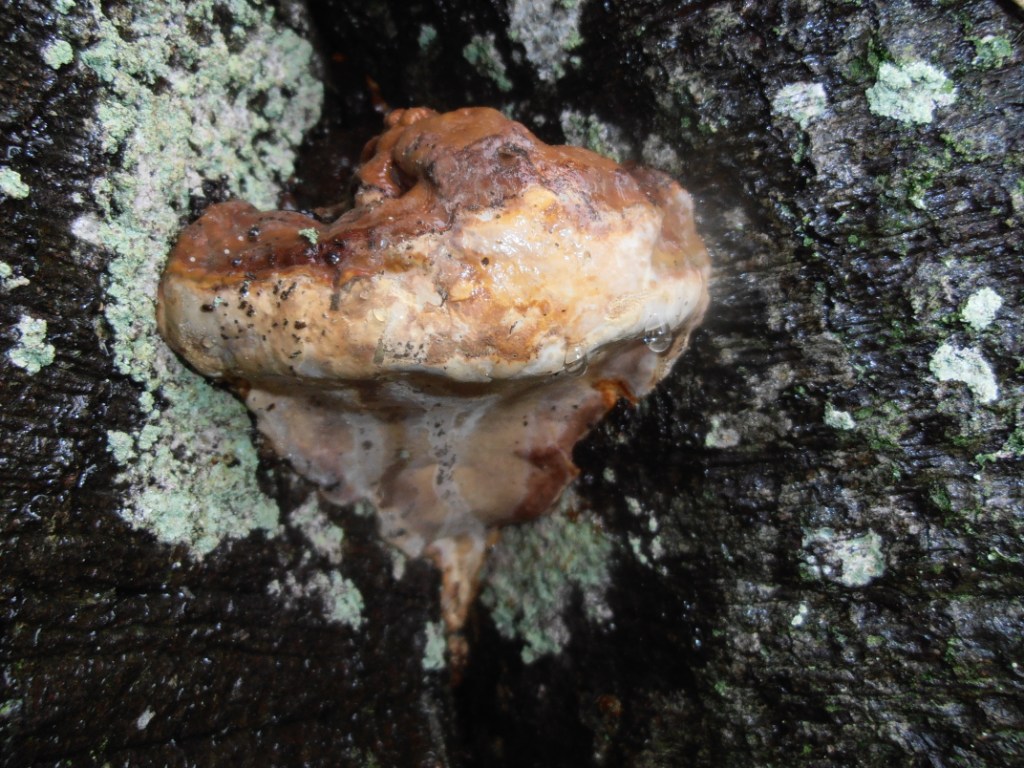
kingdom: Fungi
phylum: Basidiomycota
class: Agaricomycetes
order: Polyporales
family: Polyporaceae
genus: Ganoderma
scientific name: Ganoderma pfeifferi
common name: kobberrød lakporesvamp
